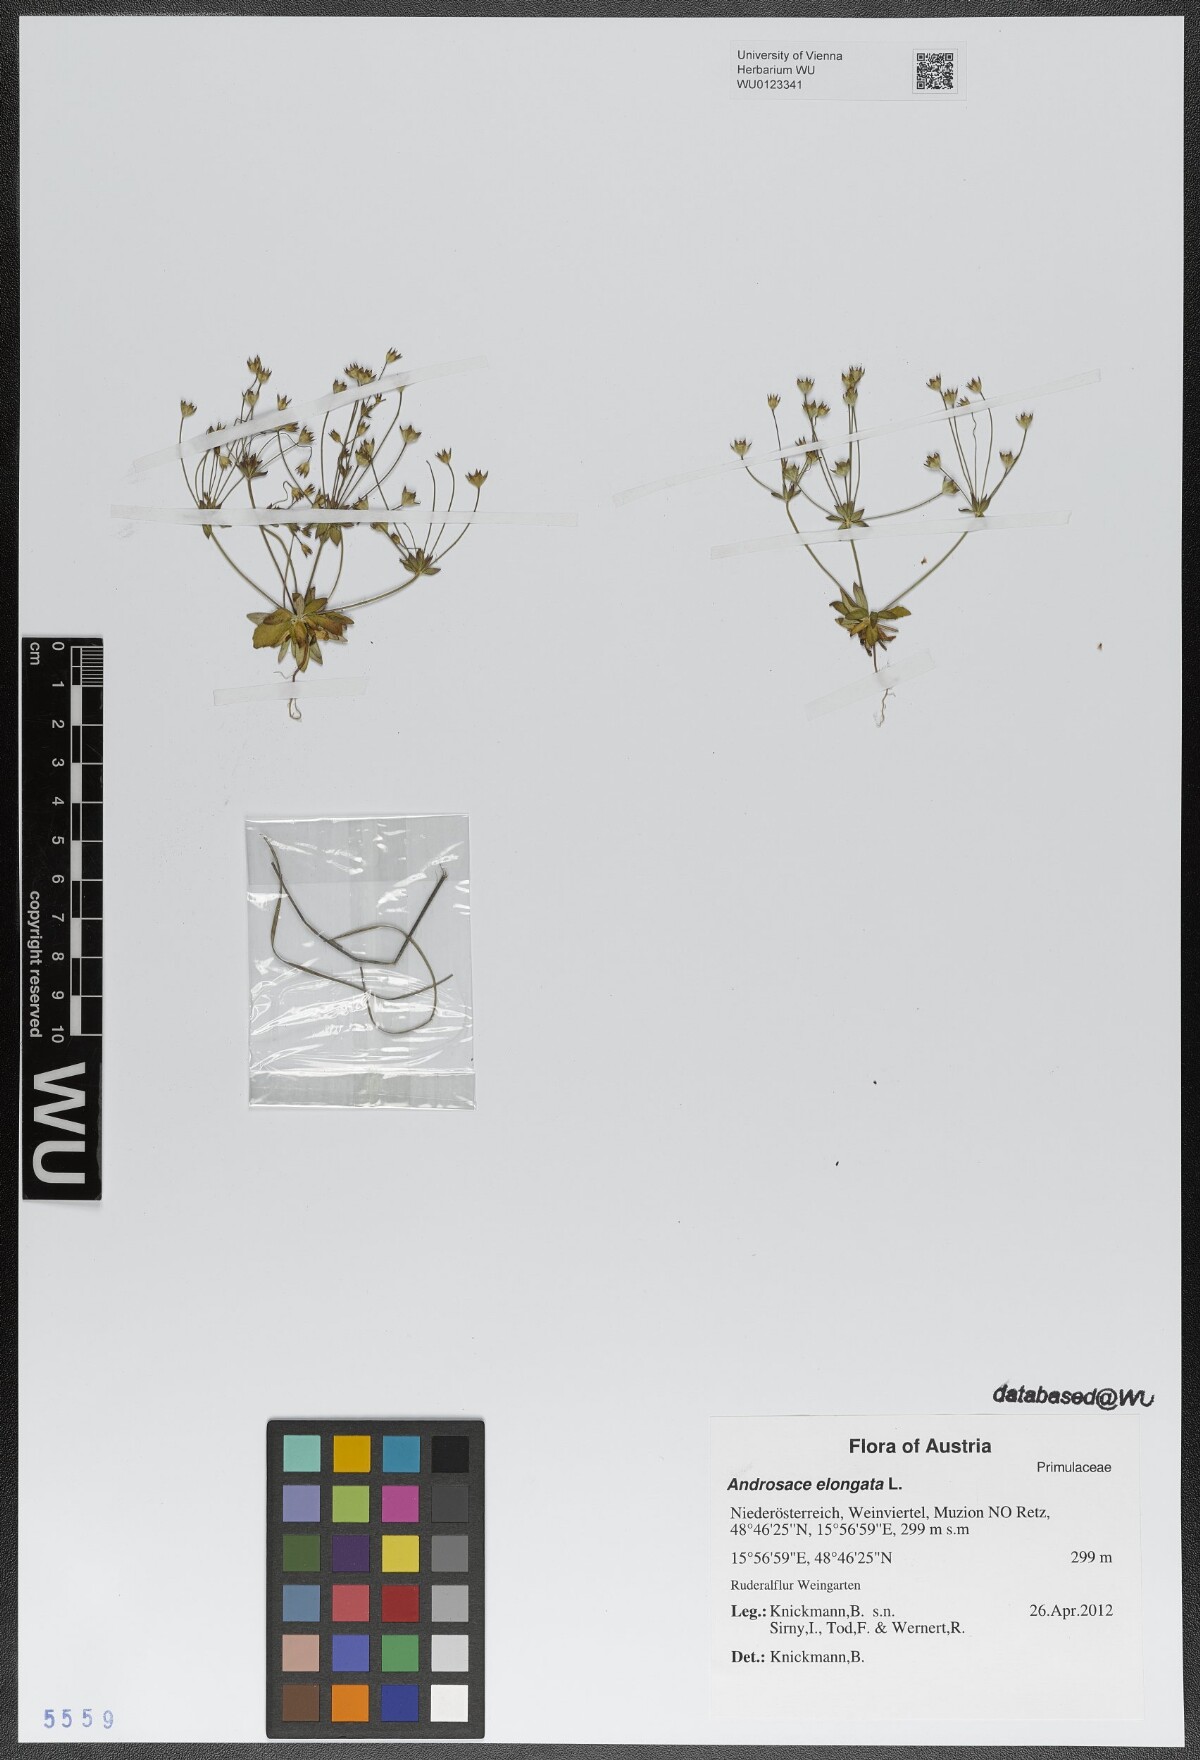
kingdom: Plantae
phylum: Tracheophyta
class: Magnoliopsida
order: Ericales
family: Primulaceae
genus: Androsace
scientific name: Androsace elongata
